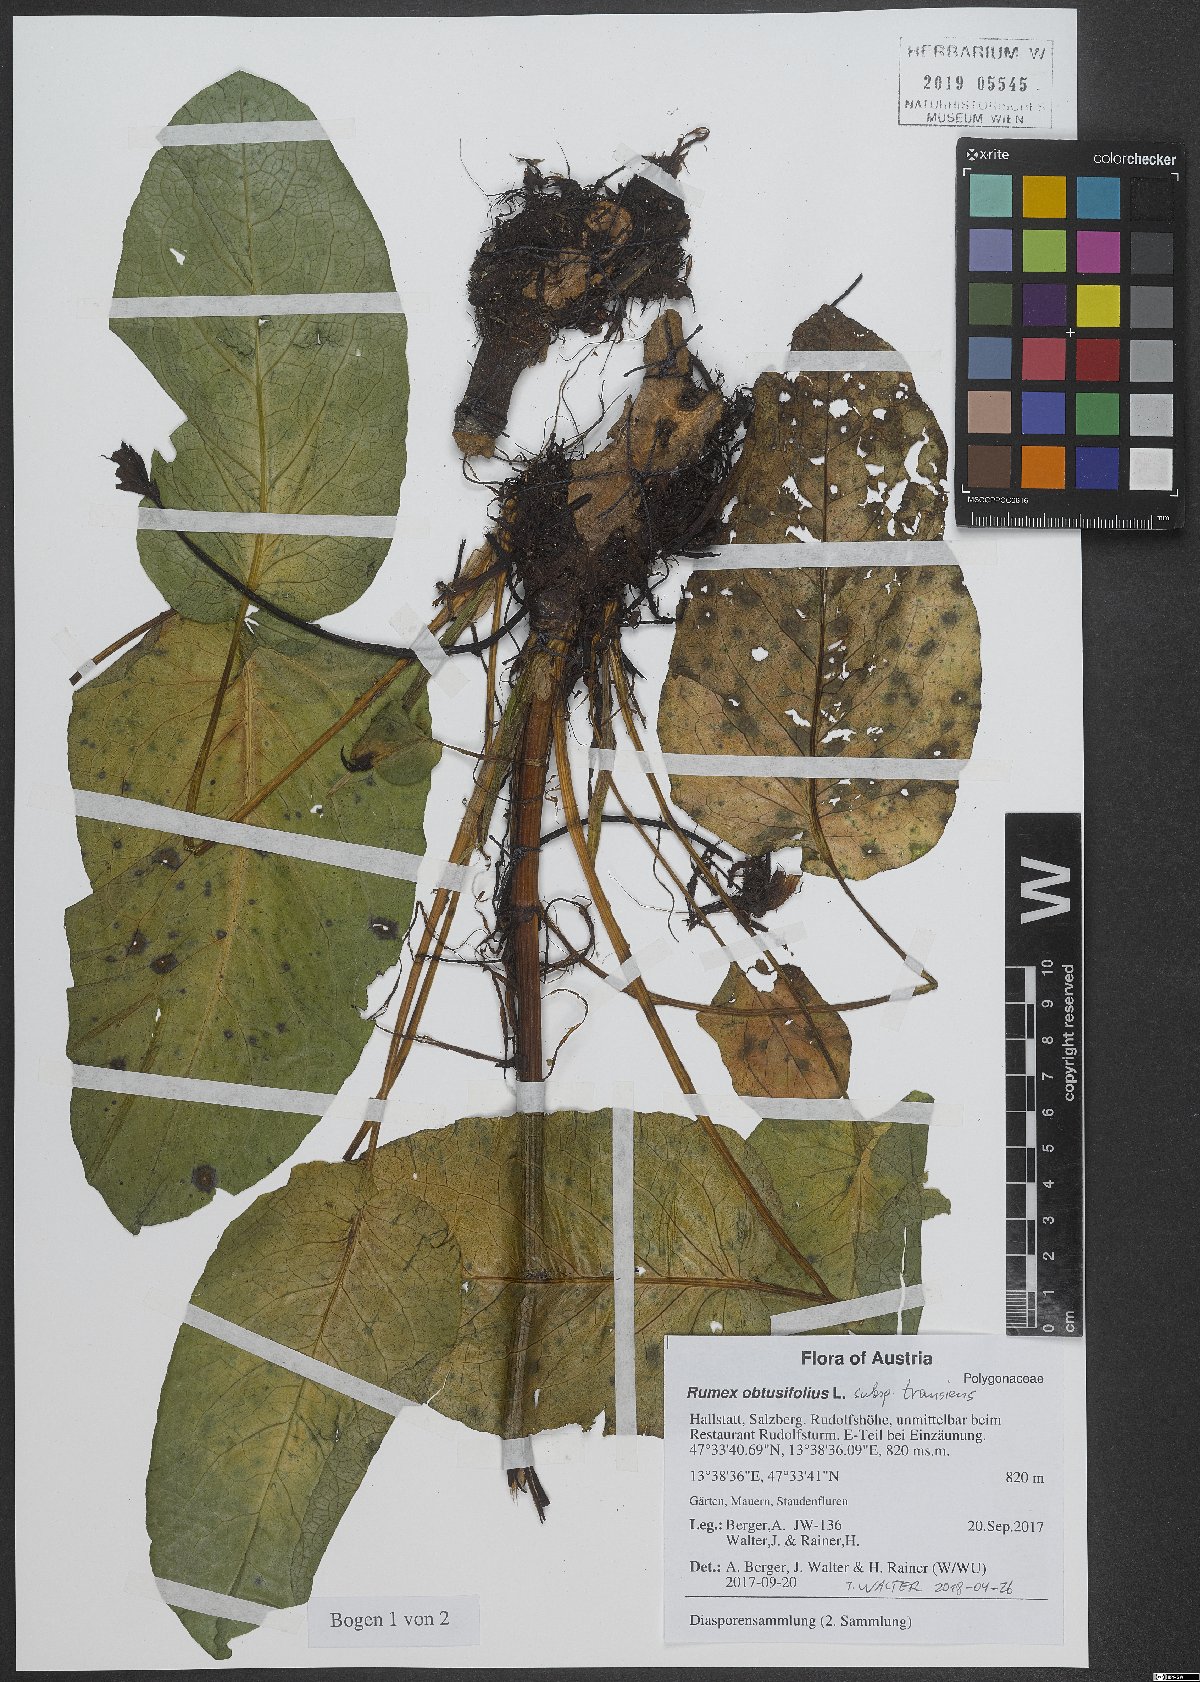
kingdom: Plantae
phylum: Tracheophyta
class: Magnoliopsida
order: Caryophyllales
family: Polygonaceae
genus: Rumex
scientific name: Rumex obtusifolius
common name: Bitter dock
